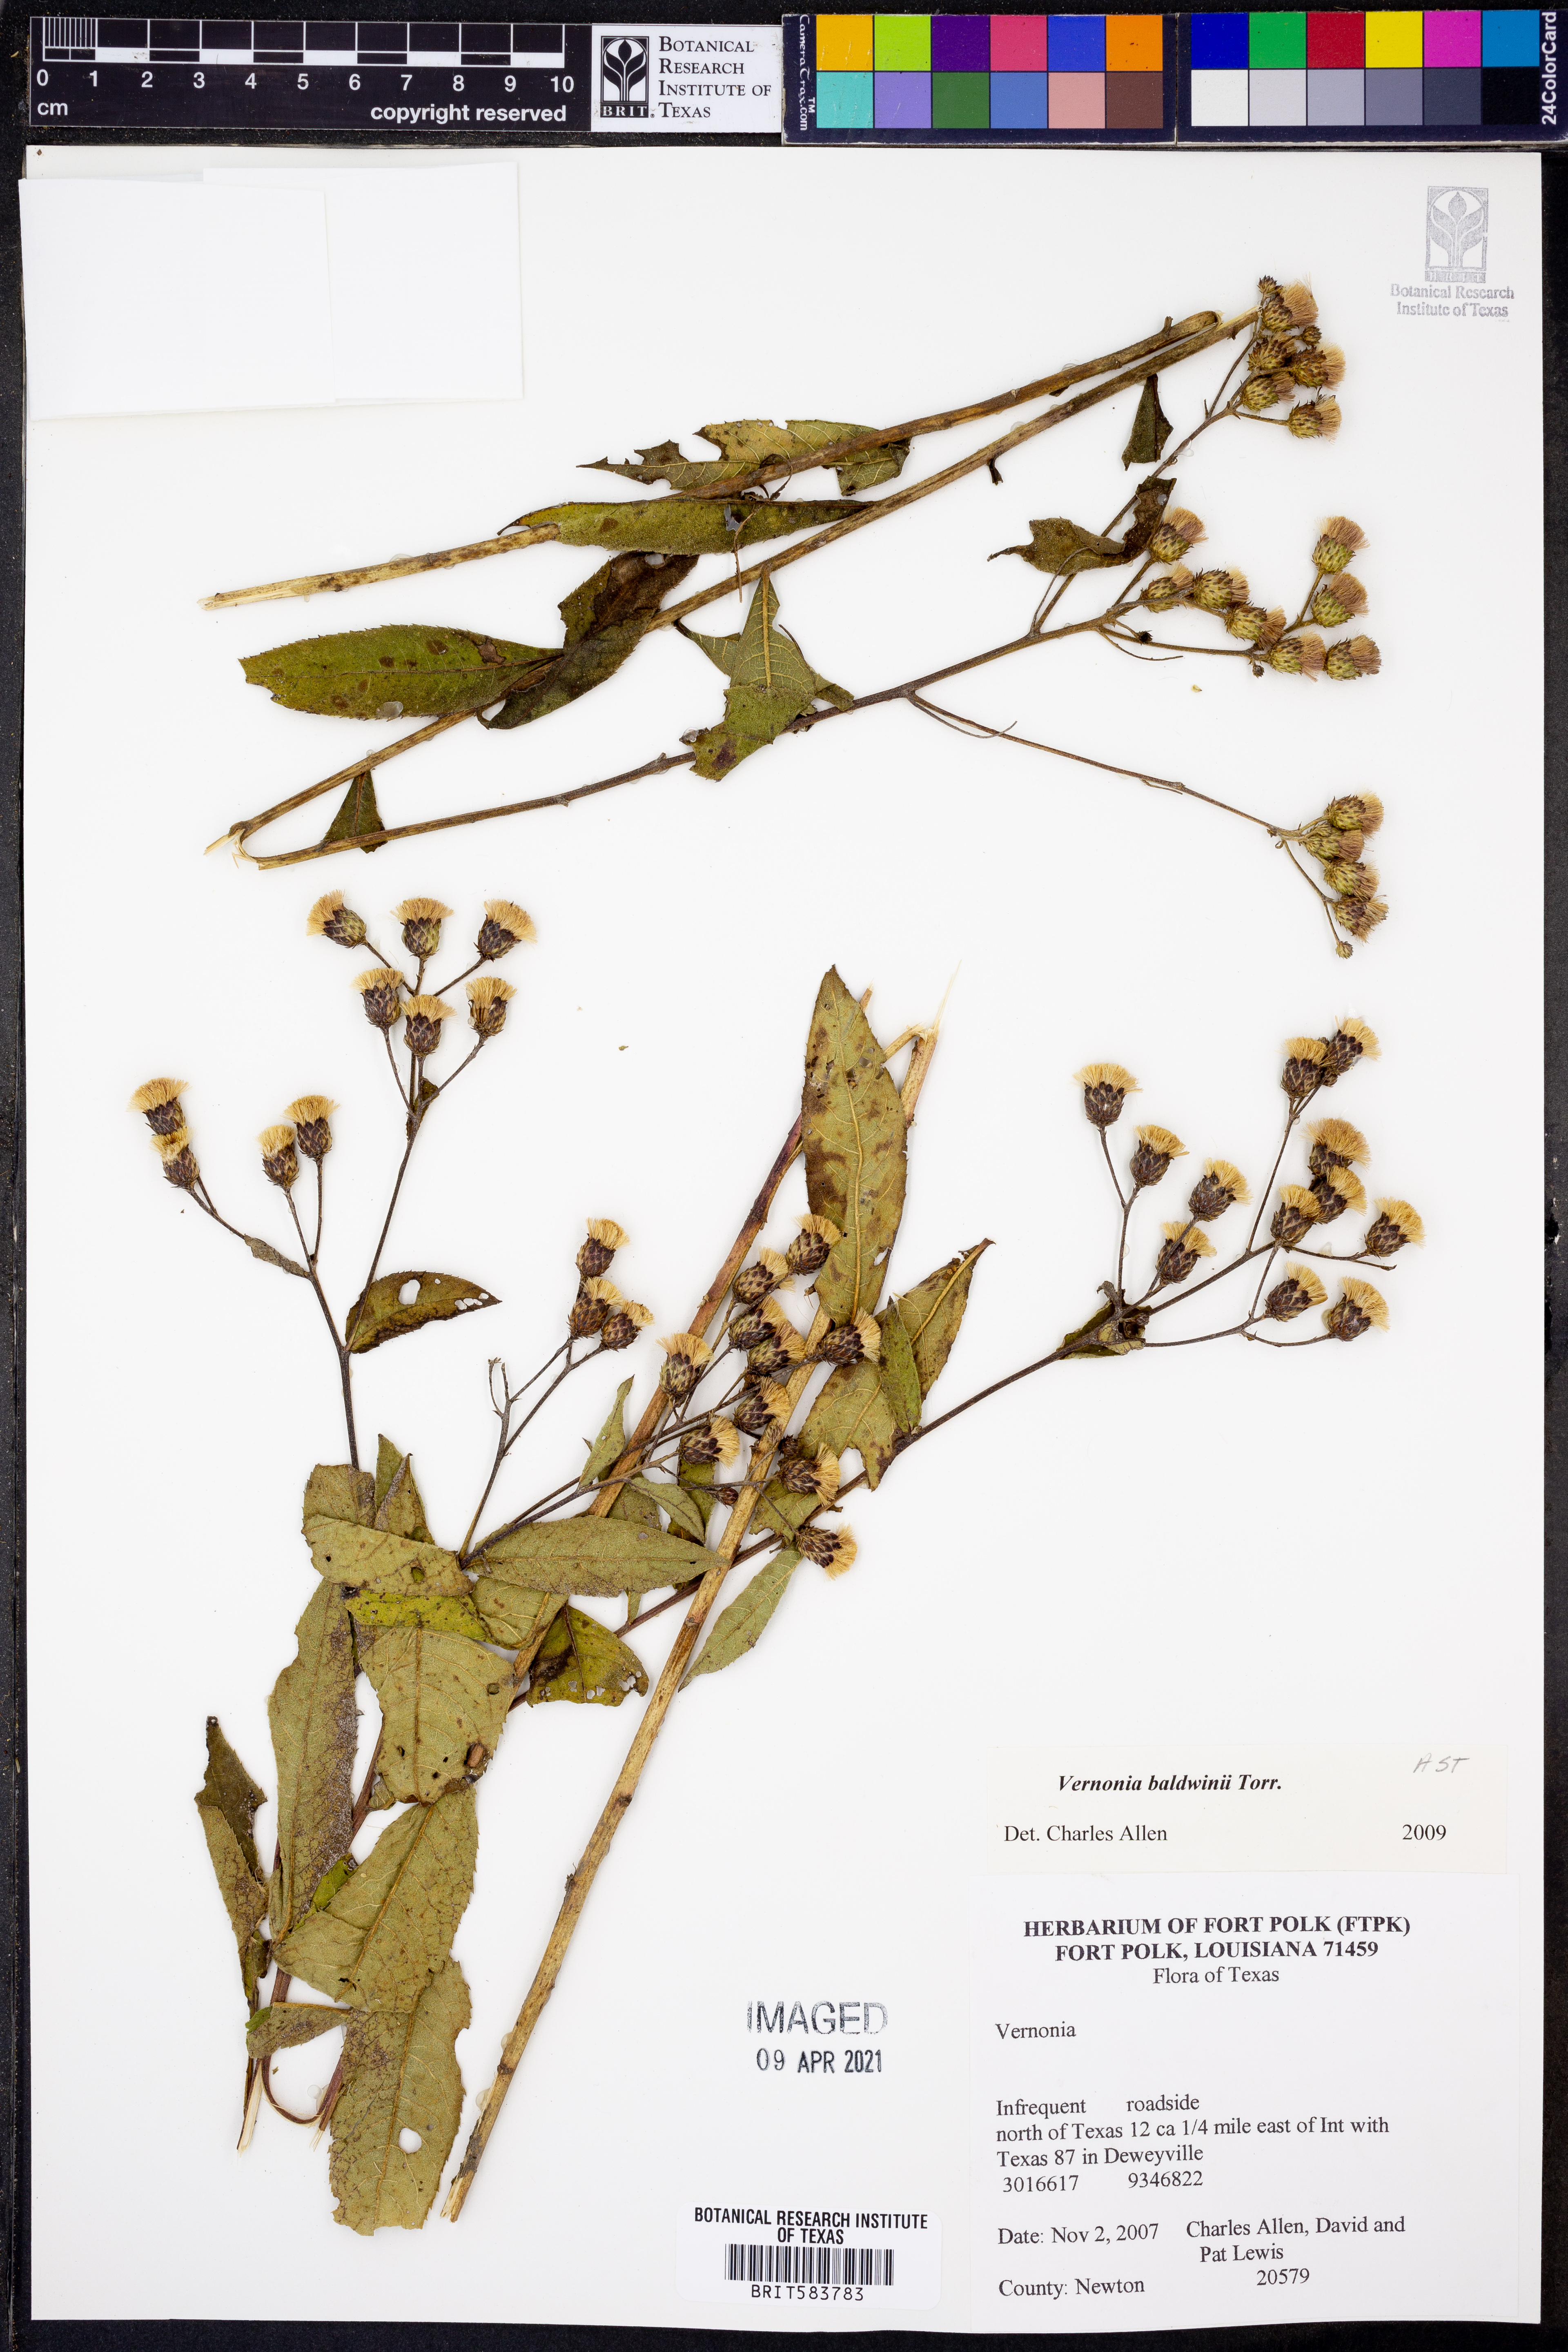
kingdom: Plantae
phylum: Tracheophyta
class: Magnoliopsida
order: Asterales
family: Asteraceae
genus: Vernonia
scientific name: Vernonia baldwinii
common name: Western ironweed
